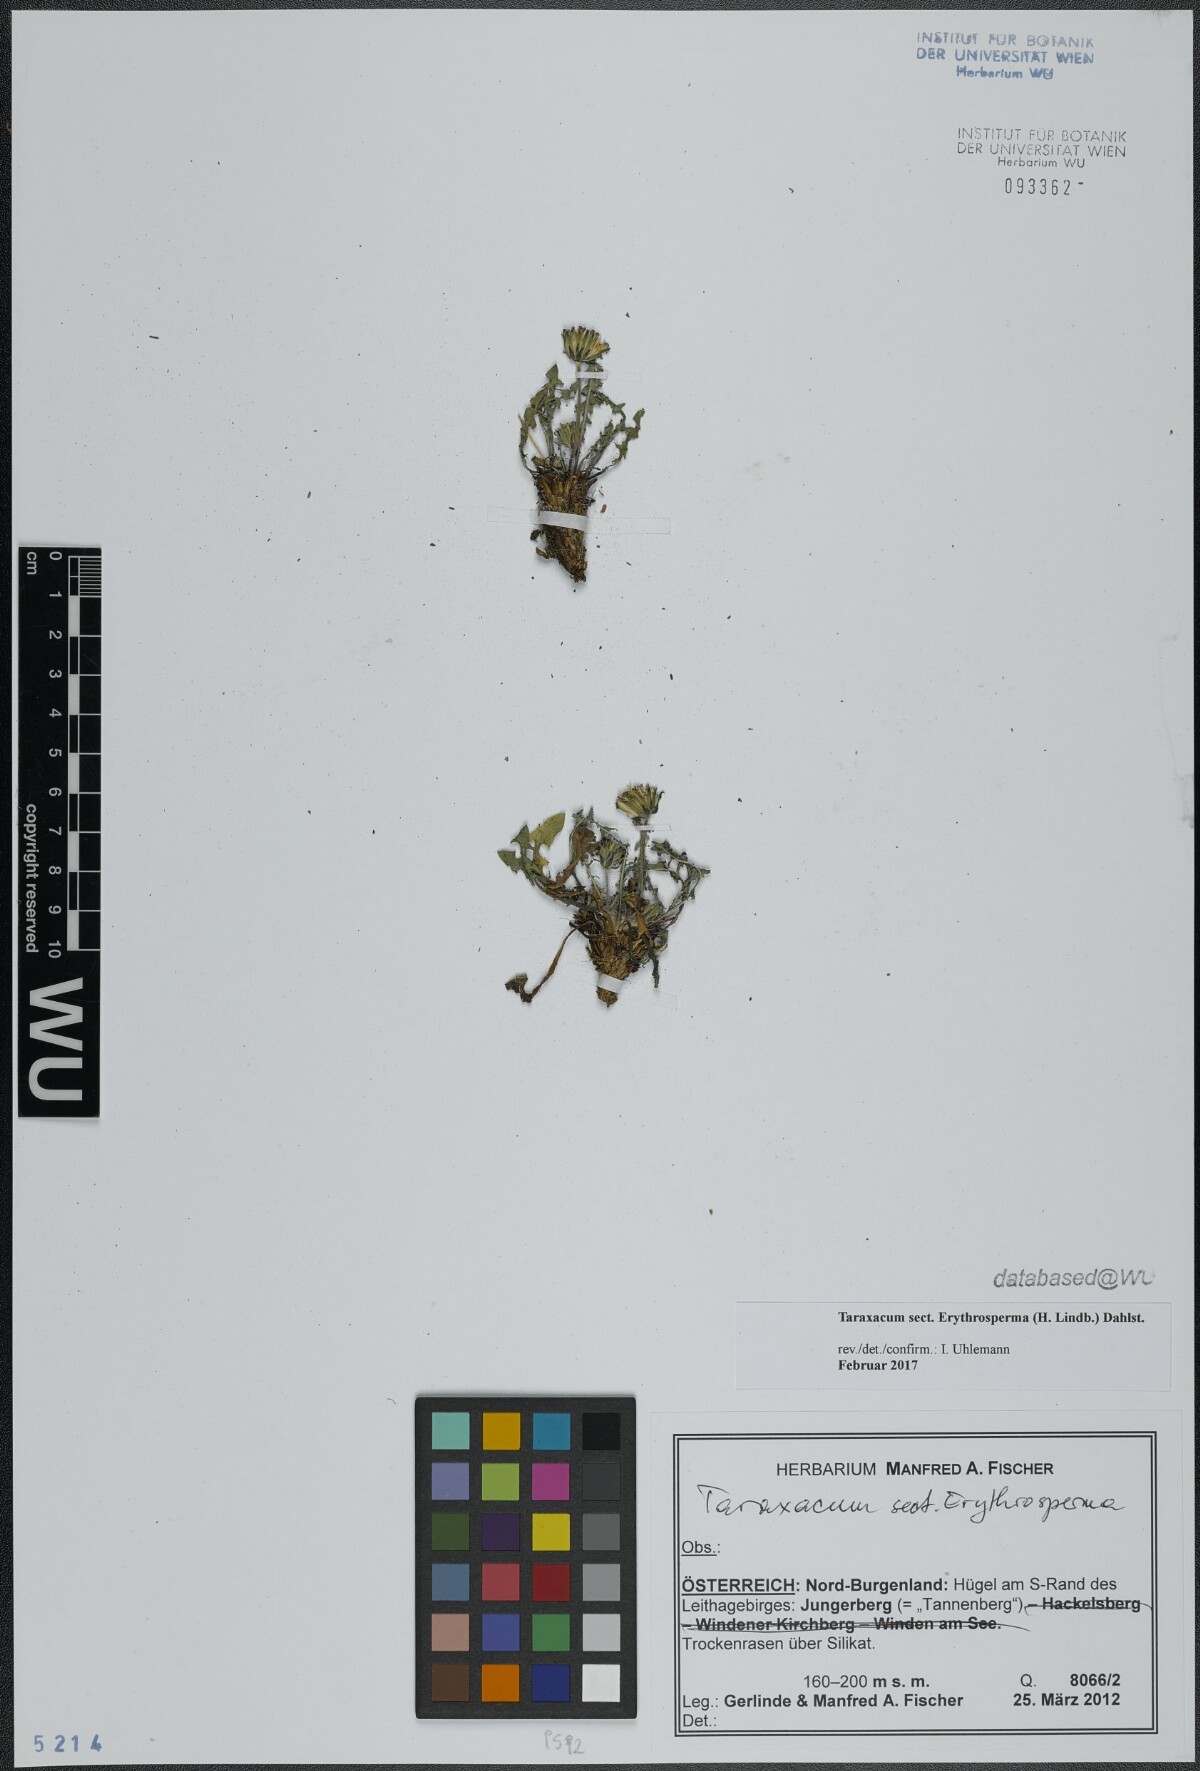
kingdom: Plantae
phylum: Tracheophyta
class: Magnoliopsida
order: Asterales
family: Asteraceae
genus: Taraxacum
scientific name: Taraxacum
